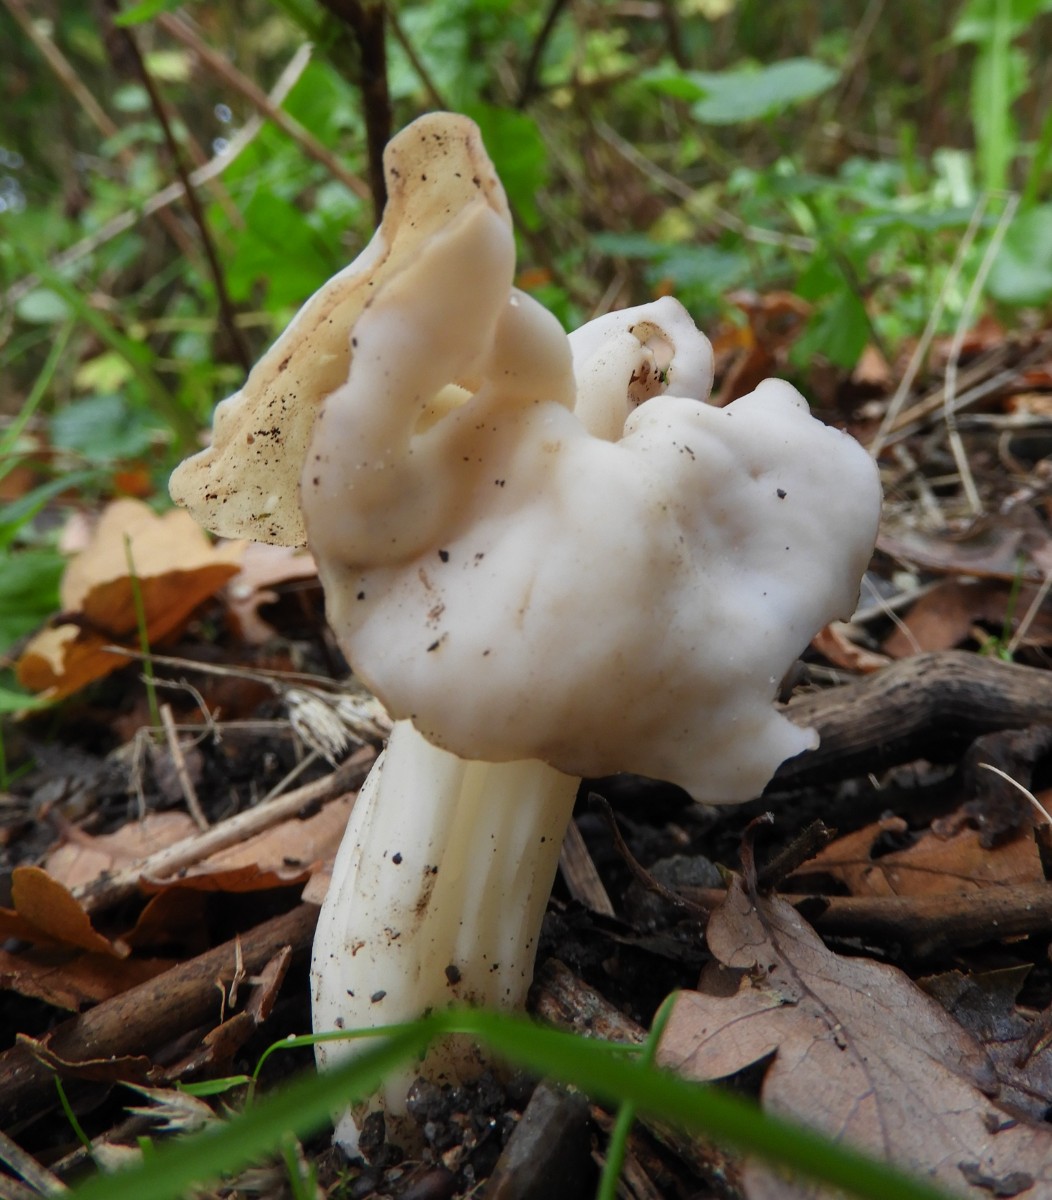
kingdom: Fungi
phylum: Ascomycota
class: Pezizomycetes
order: Pezizales
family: Helvellaceae
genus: Helvella
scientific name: Helvella crispa
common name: kruset foldhat
